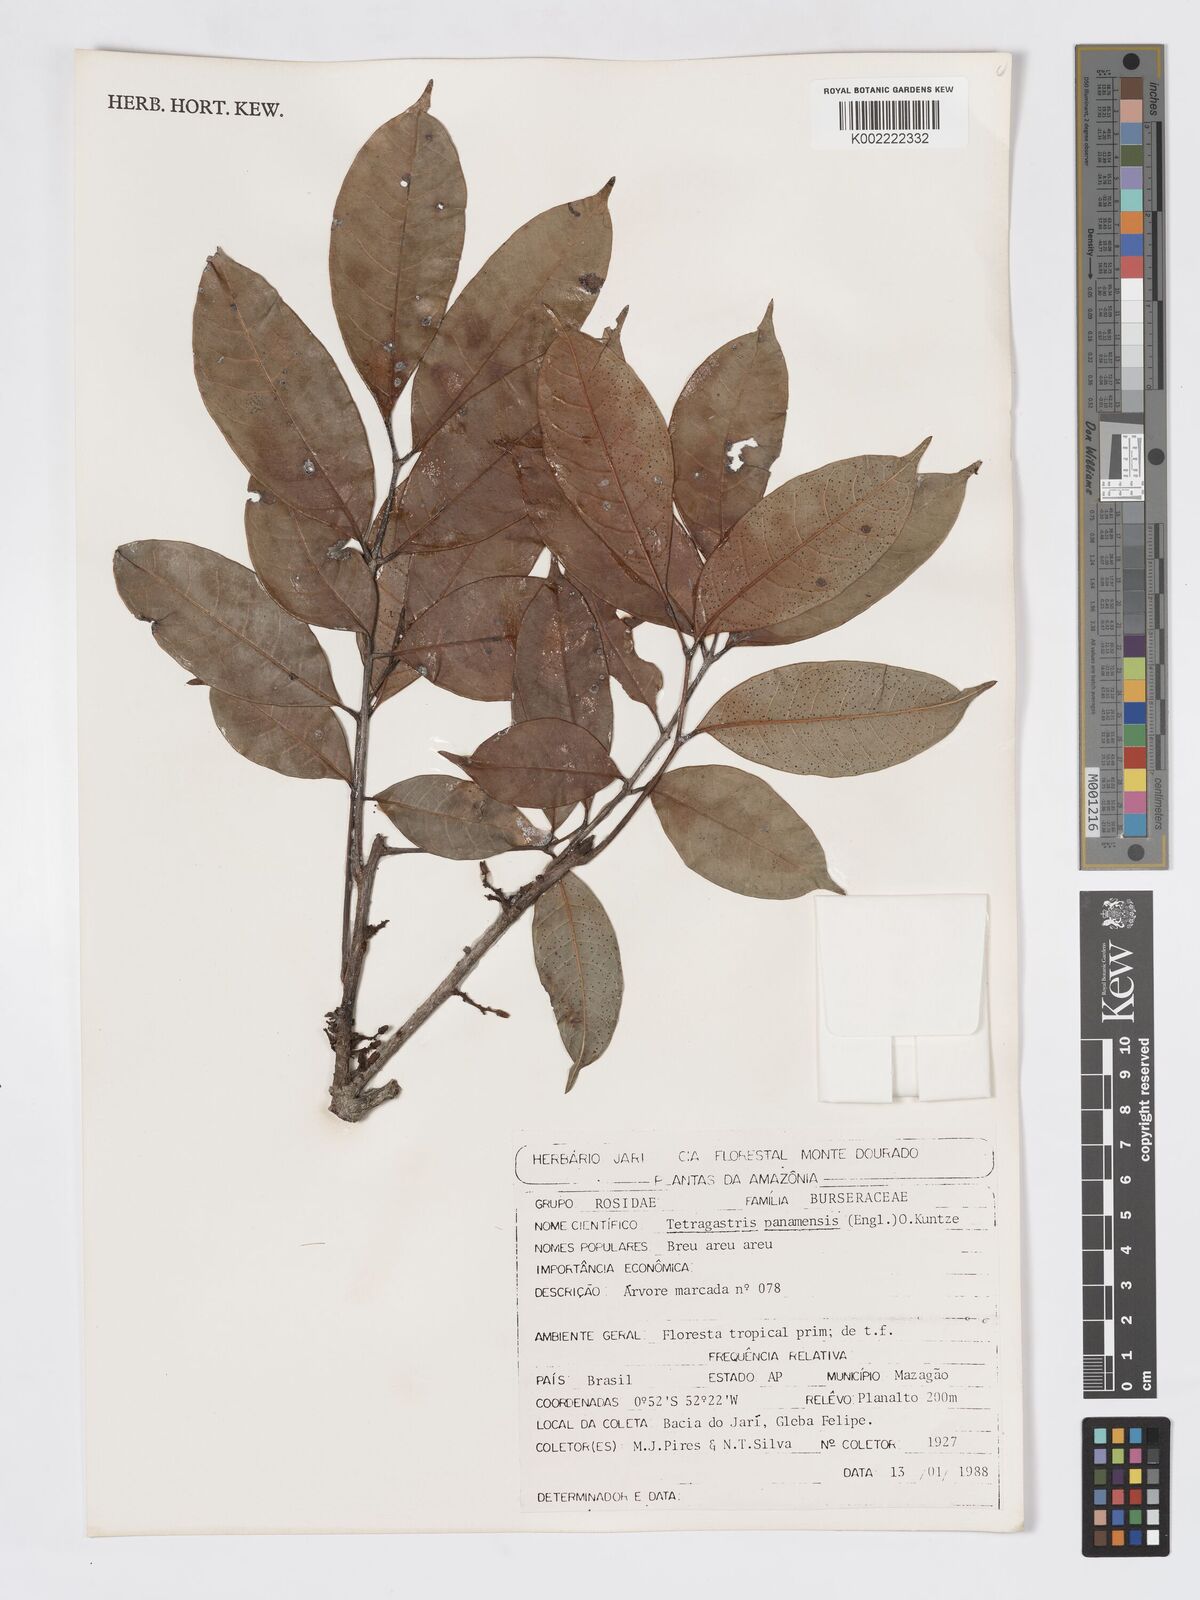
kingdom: Plantae
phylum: Tracheophyta
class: Magnoliopsida
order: Sapindales
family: Burseraceae
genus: Tetragastris
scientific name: Tetragastris panamensis
